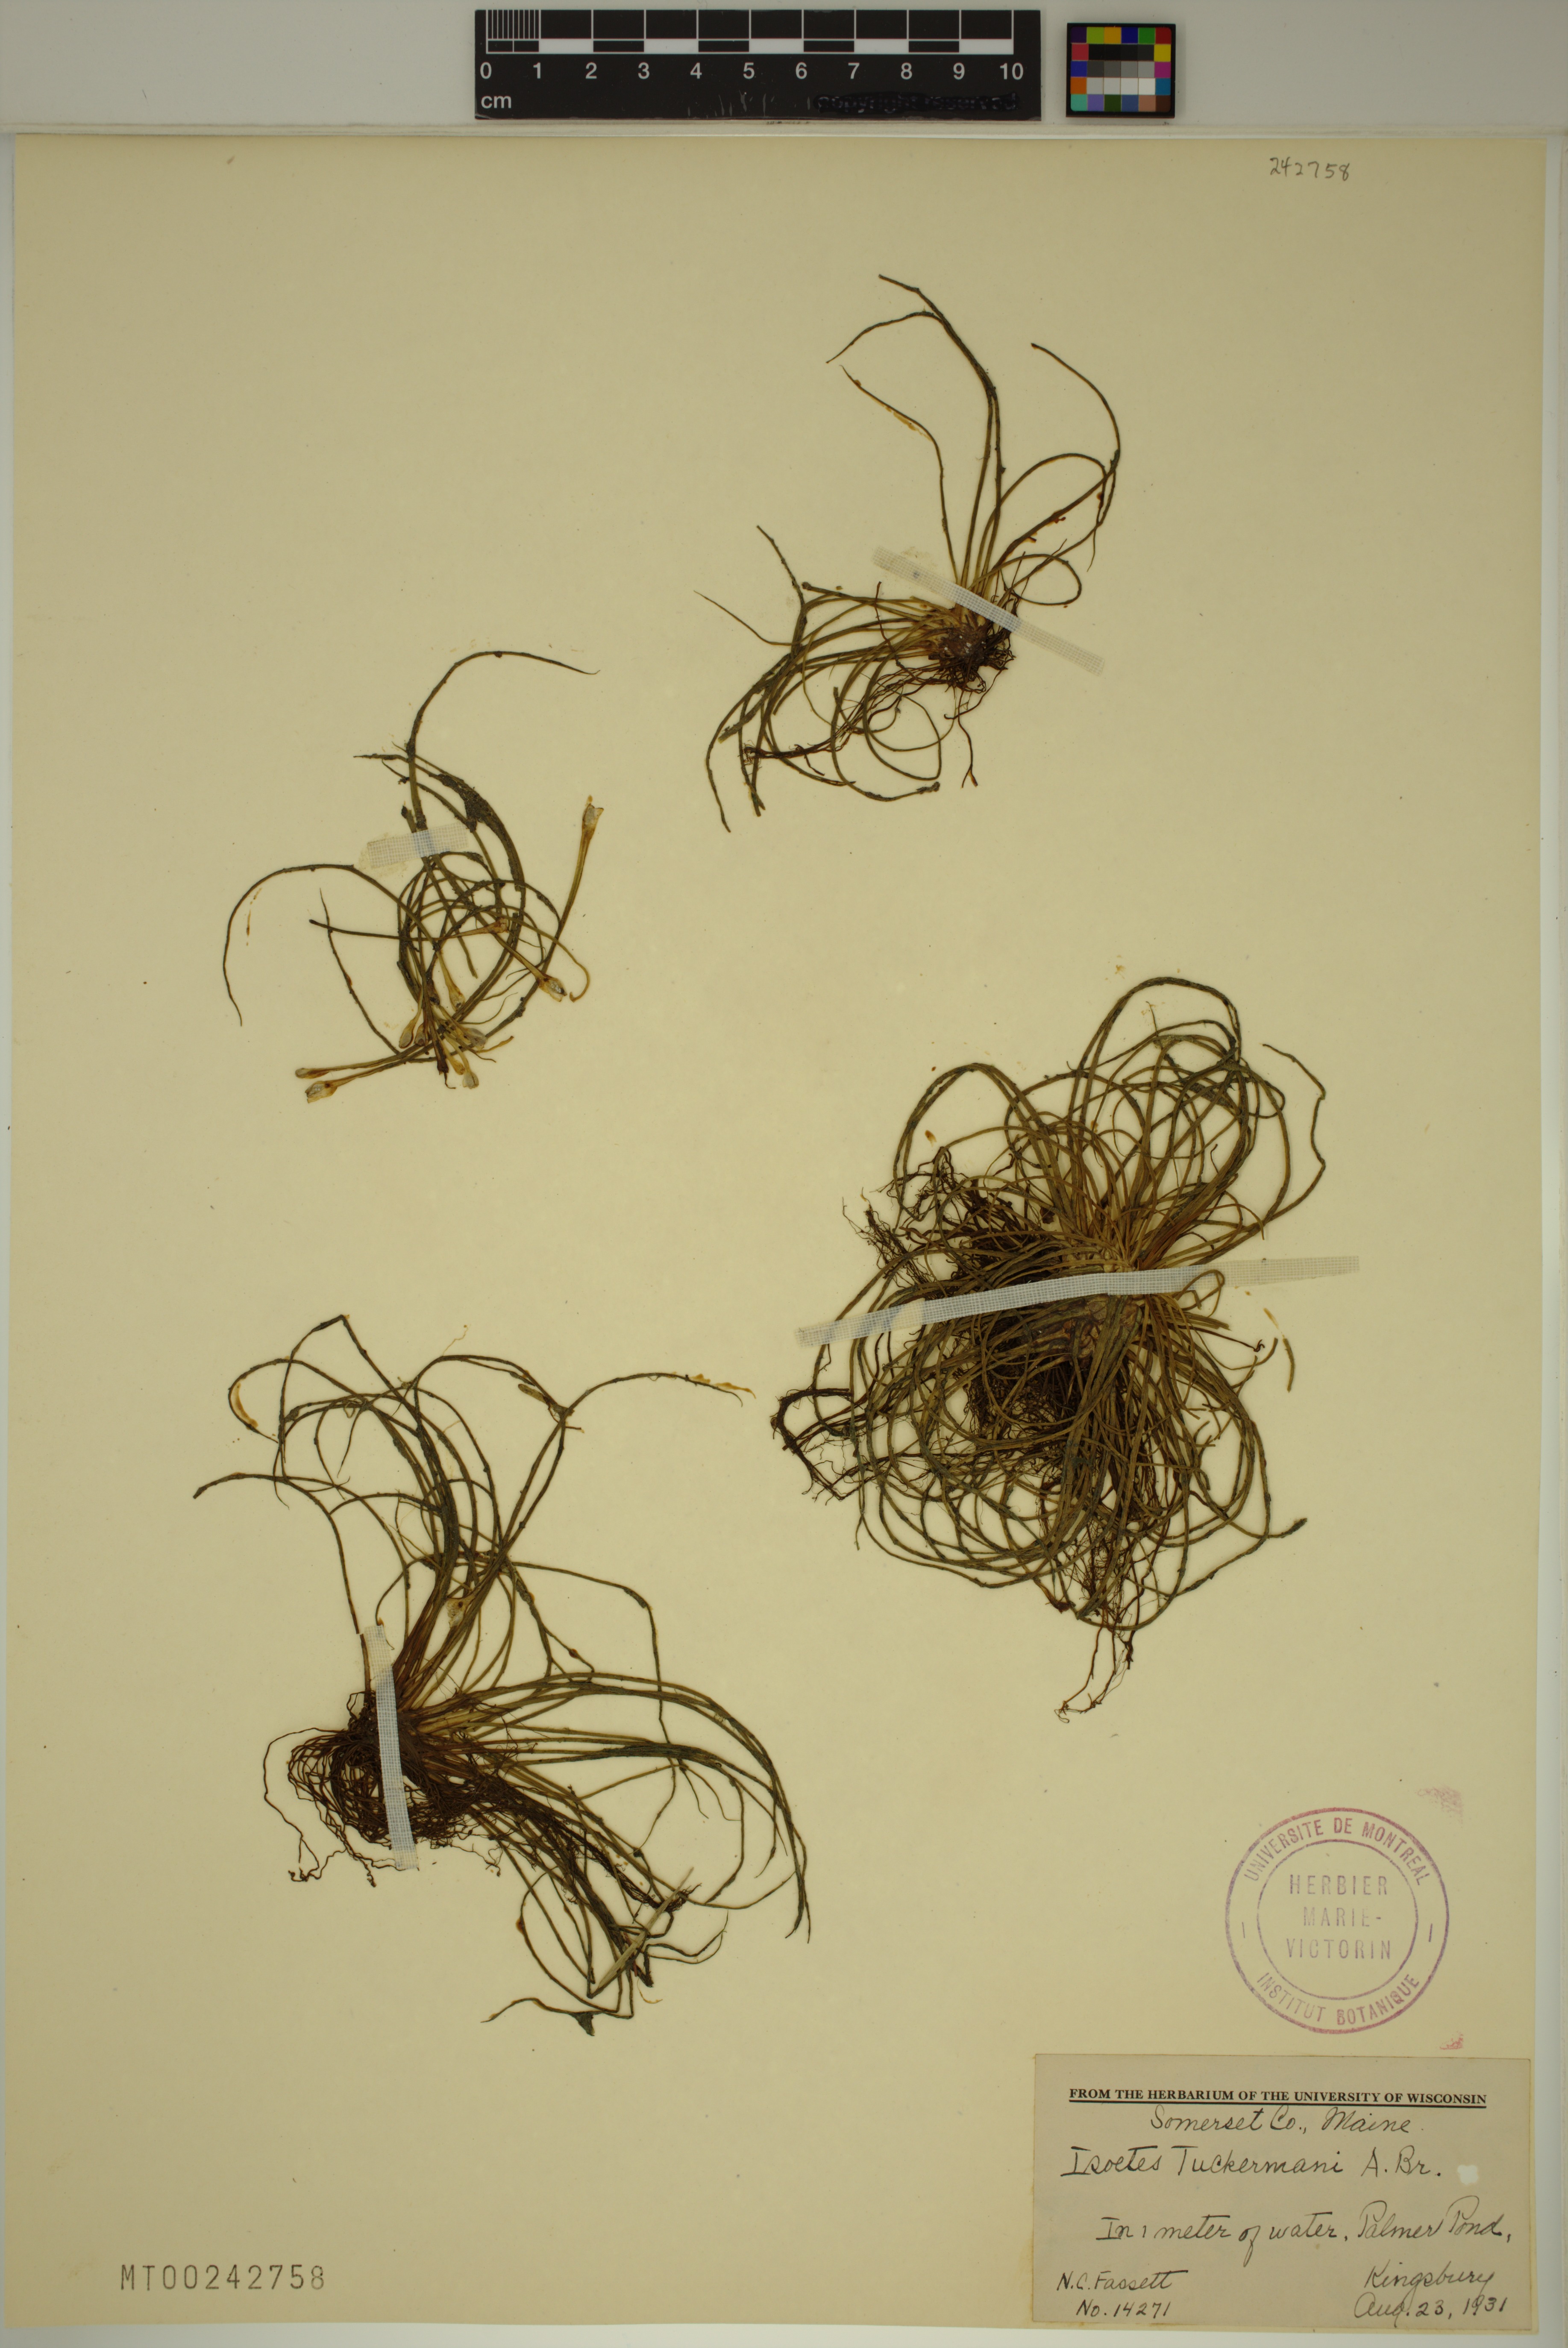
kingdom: Plantae
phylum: Tracheophyta
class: Lycopodiopsida
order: Isoetales
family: Isoetaceae
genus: Isoetes
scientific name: Isoetes harveyi
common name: Harvey's quillwort
